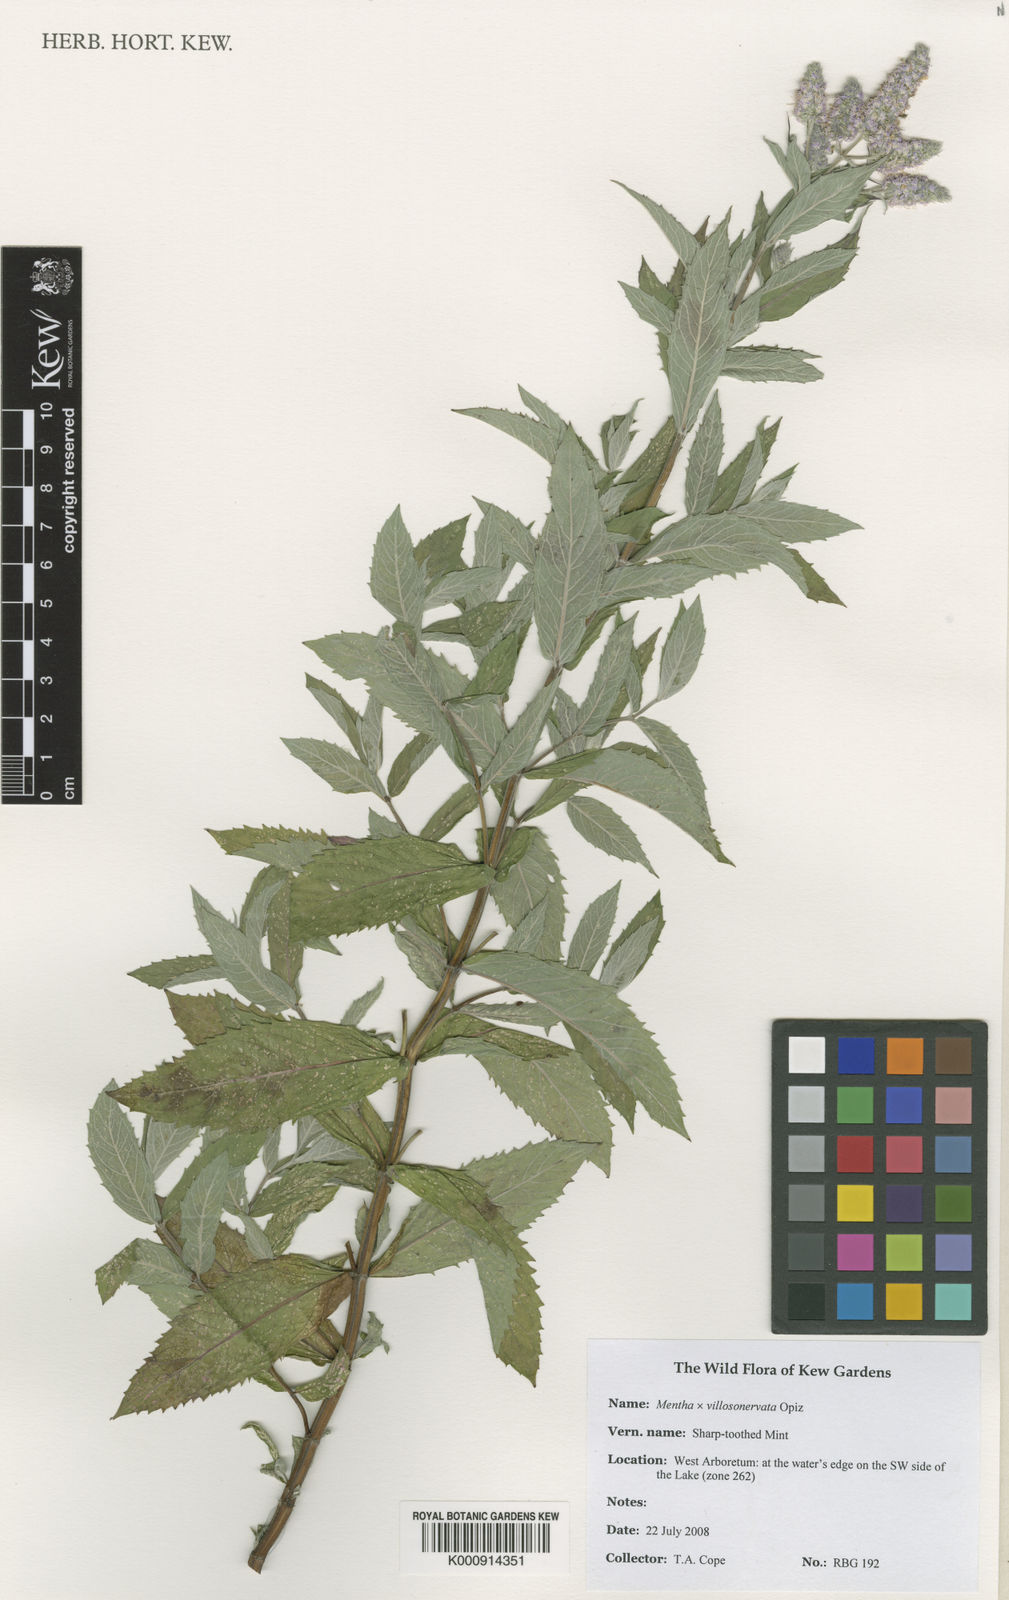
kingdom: Plantae
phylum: Tracheophyta
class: Magnoliopsida
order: Lamiales
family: Lamiaceae
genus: Mentha
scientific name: Mentha
